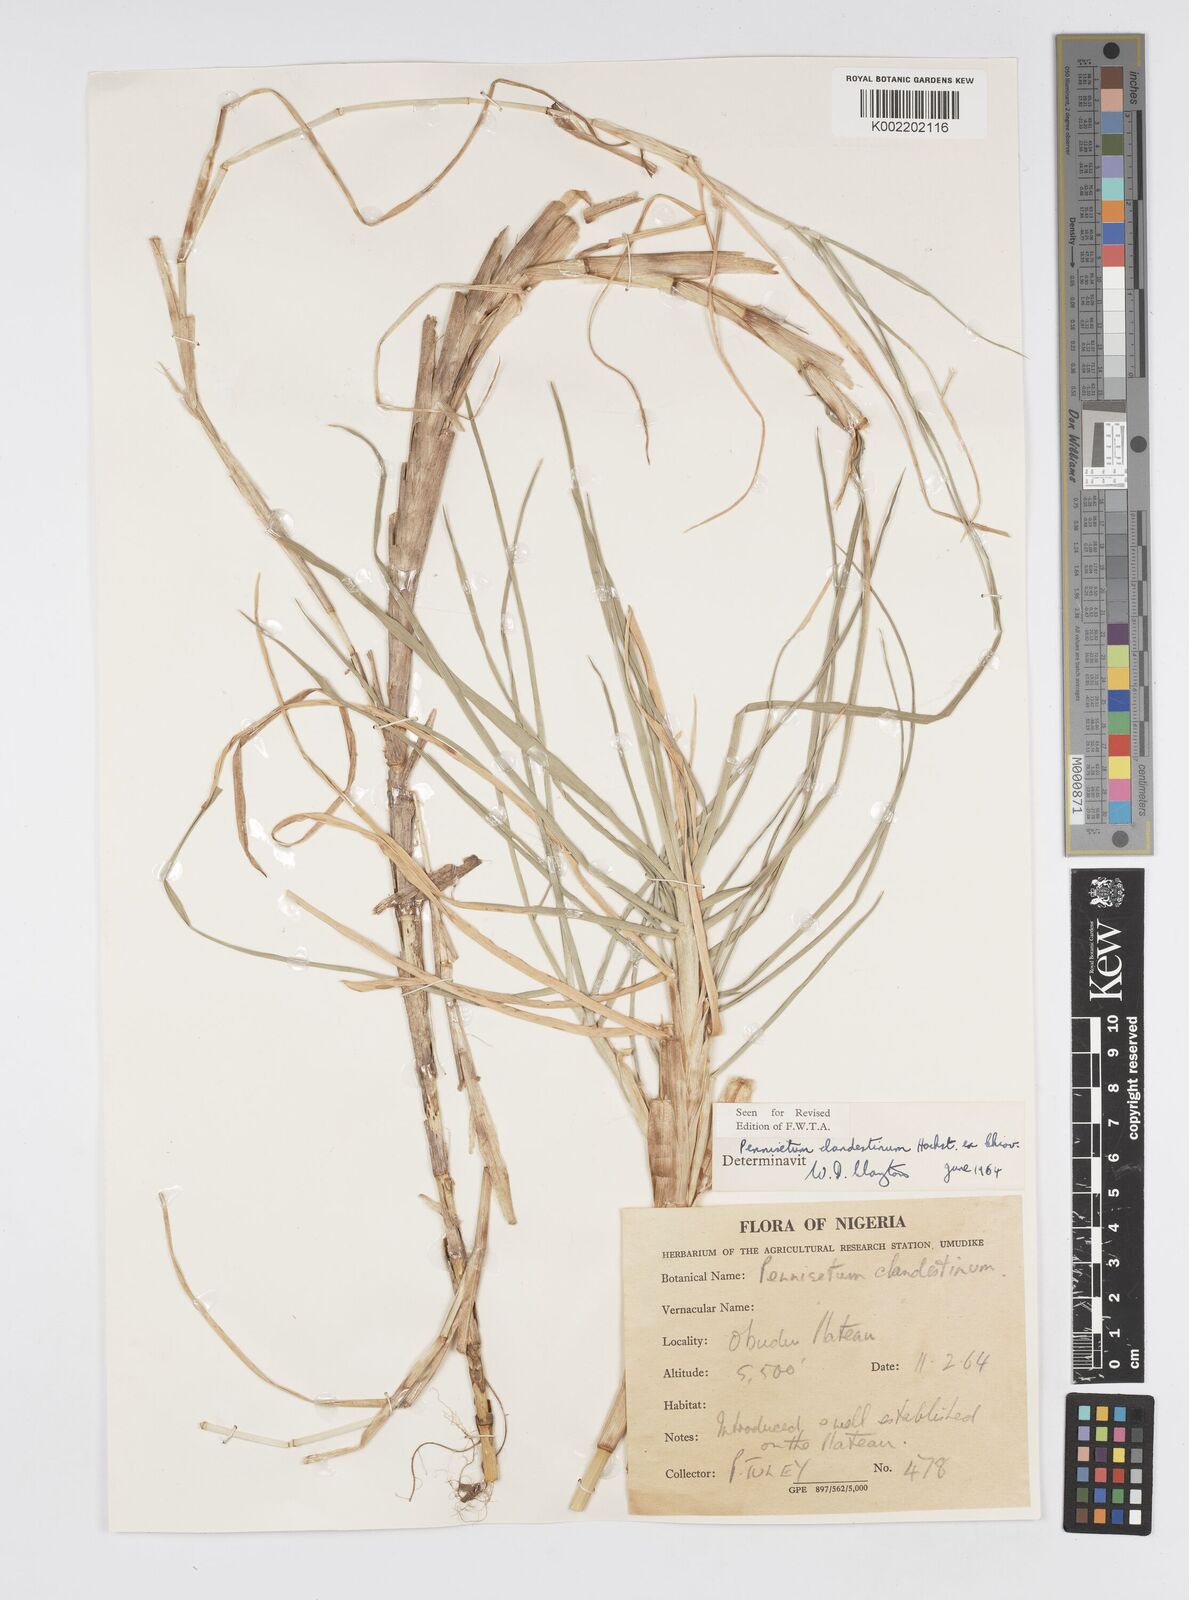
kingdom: Plantae
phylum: Tracheophyta
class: Liliopsida
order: Poales
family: Poaceae
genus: Cenchrus
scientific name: Cenchrus clandestinus
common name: Kikuyugrass
